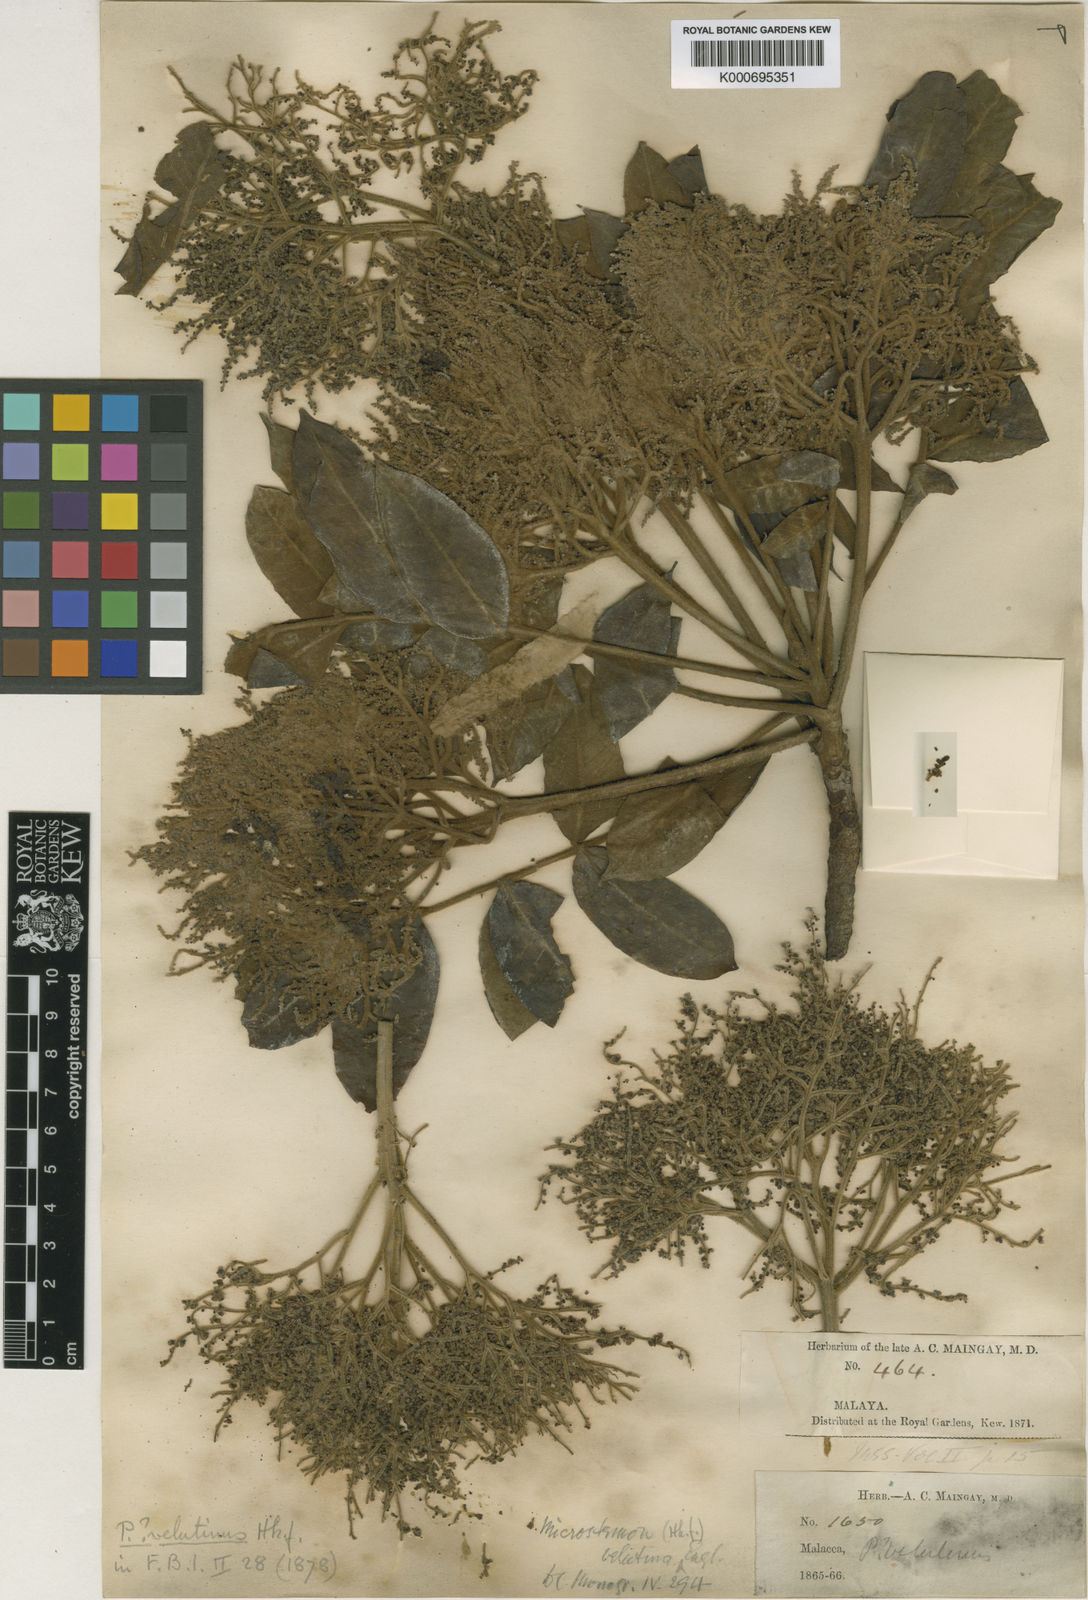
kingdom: Plantae
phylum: Tracheophyta
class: Magnoliopsida
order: Sapindales
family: Anacardiaceae
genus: Pentaspadon
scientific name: Pentaspadon velutinus
